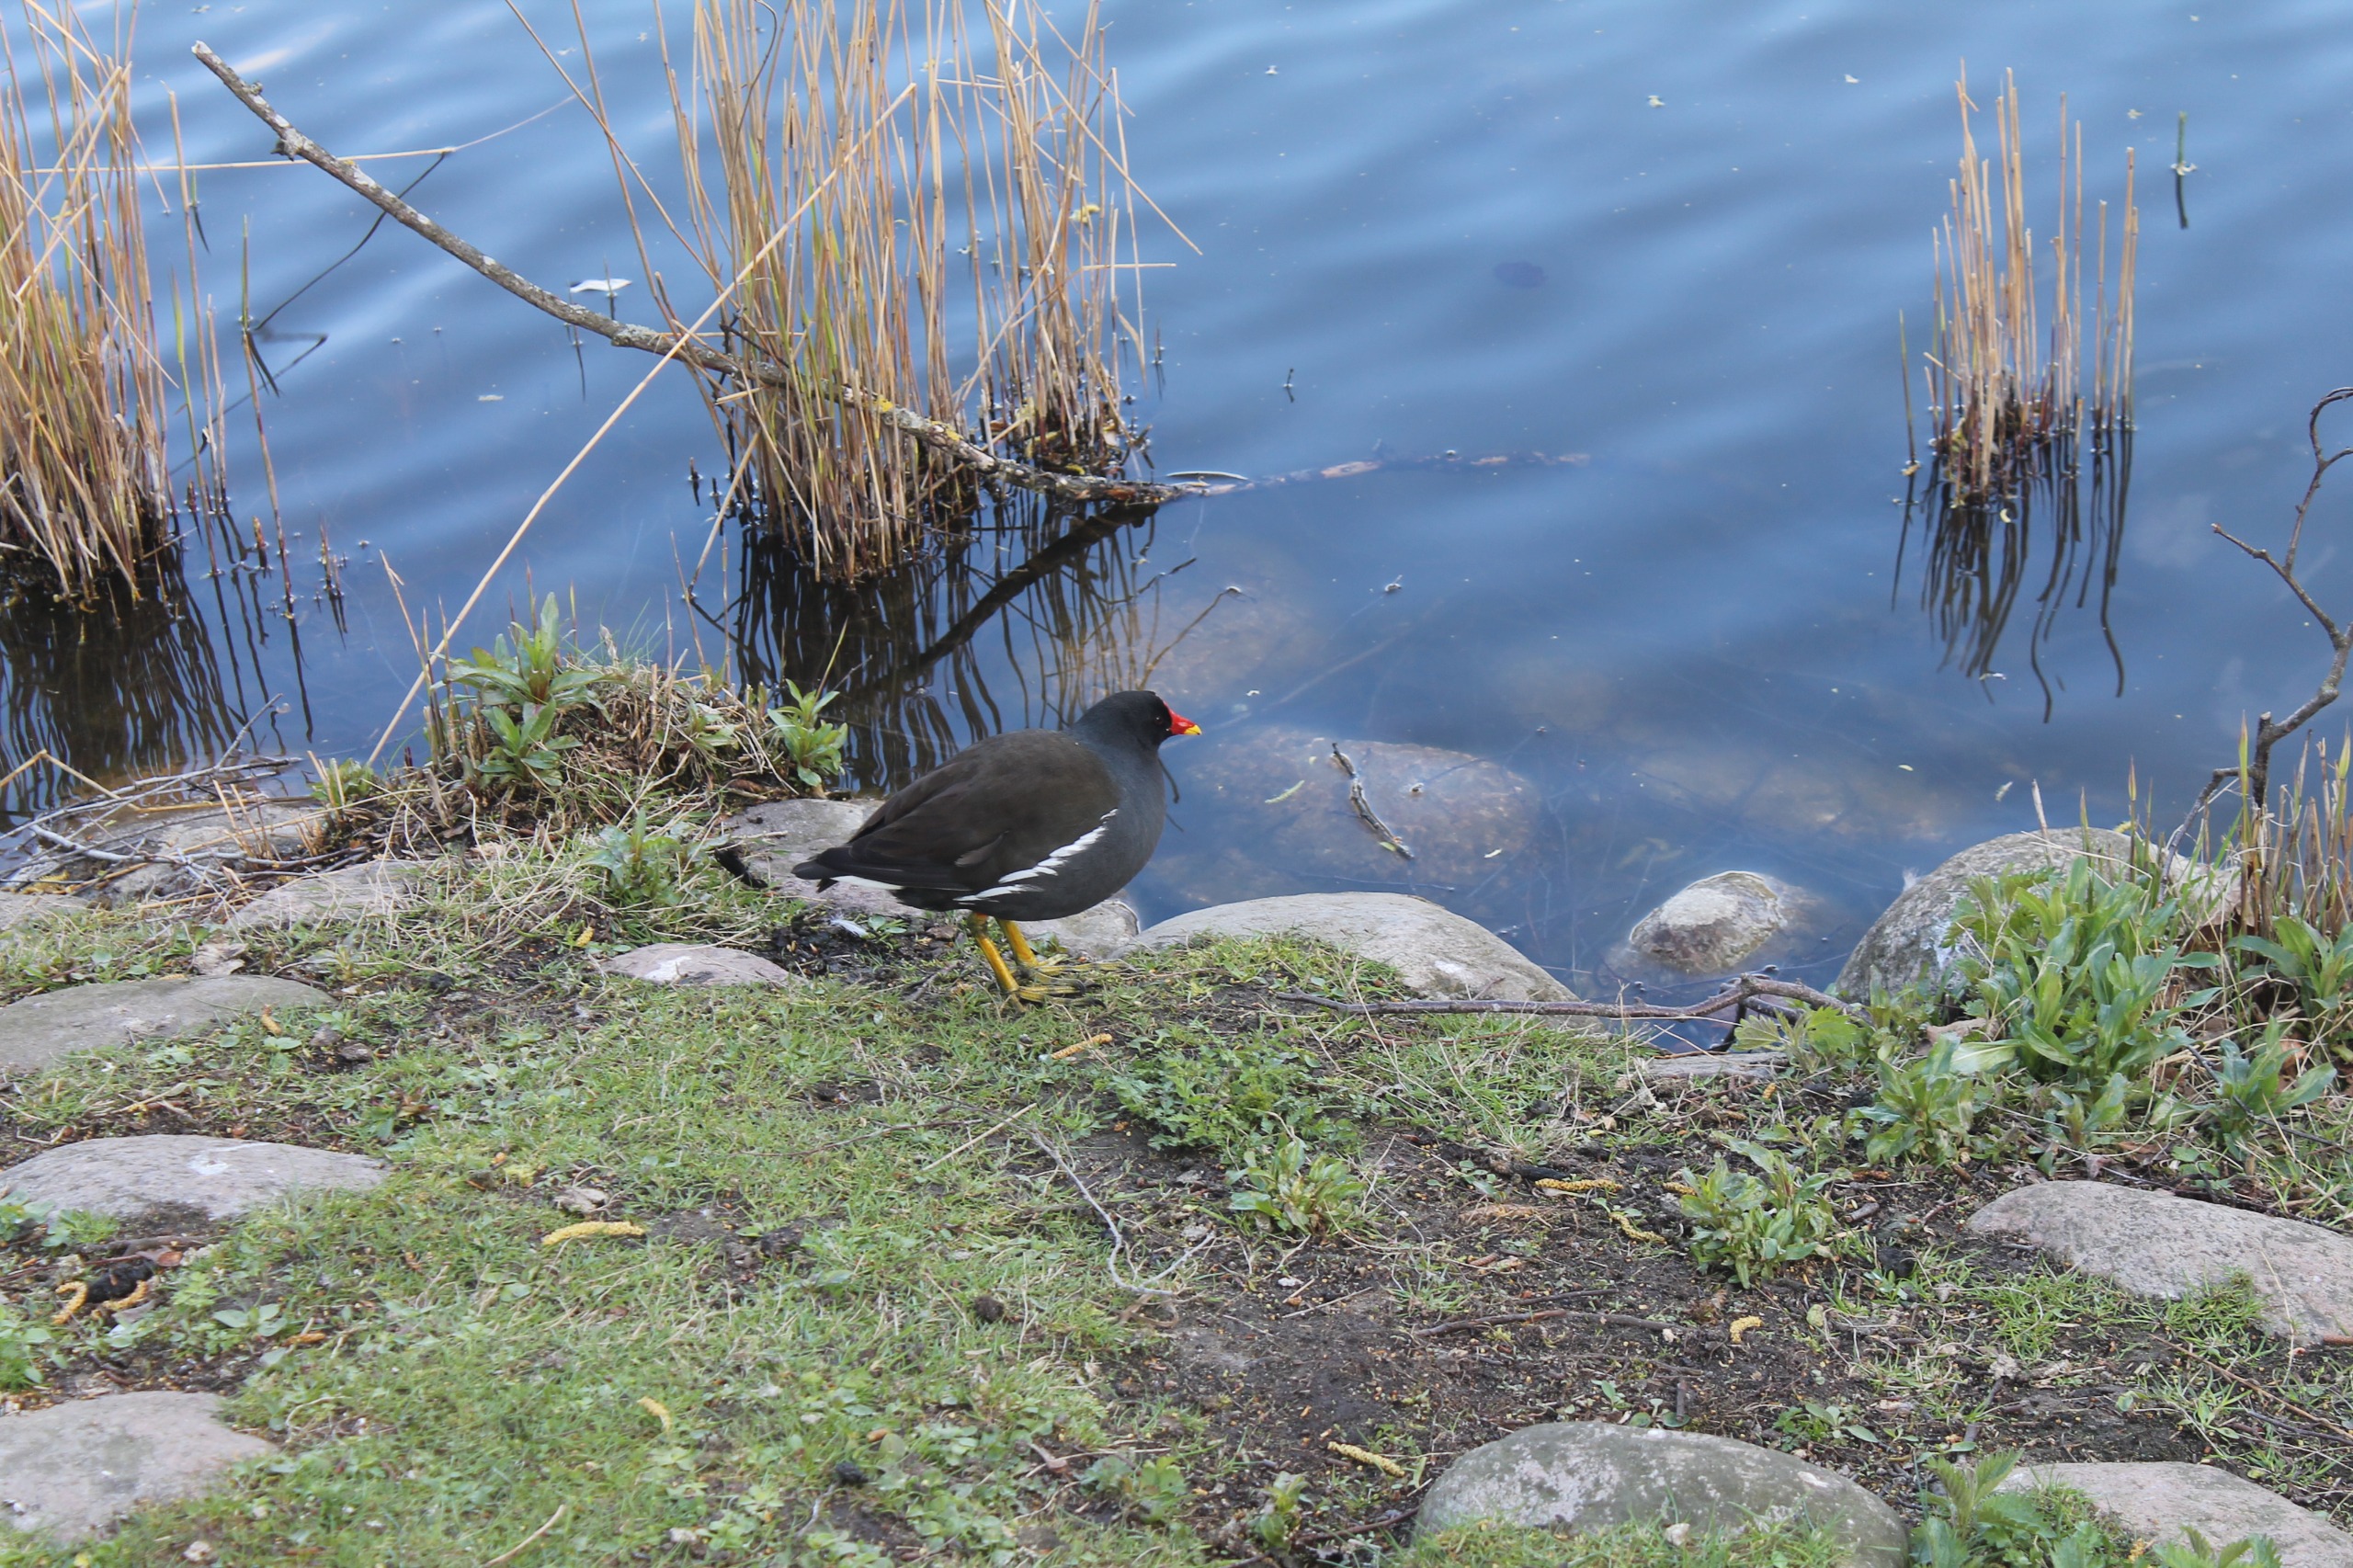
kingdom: Animalia
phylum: Chordata
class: Aves
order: Gruiformes
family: Rallidae
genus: Gallinula
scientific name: Gallinula chloropus
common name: Grønbenet rørhøne
